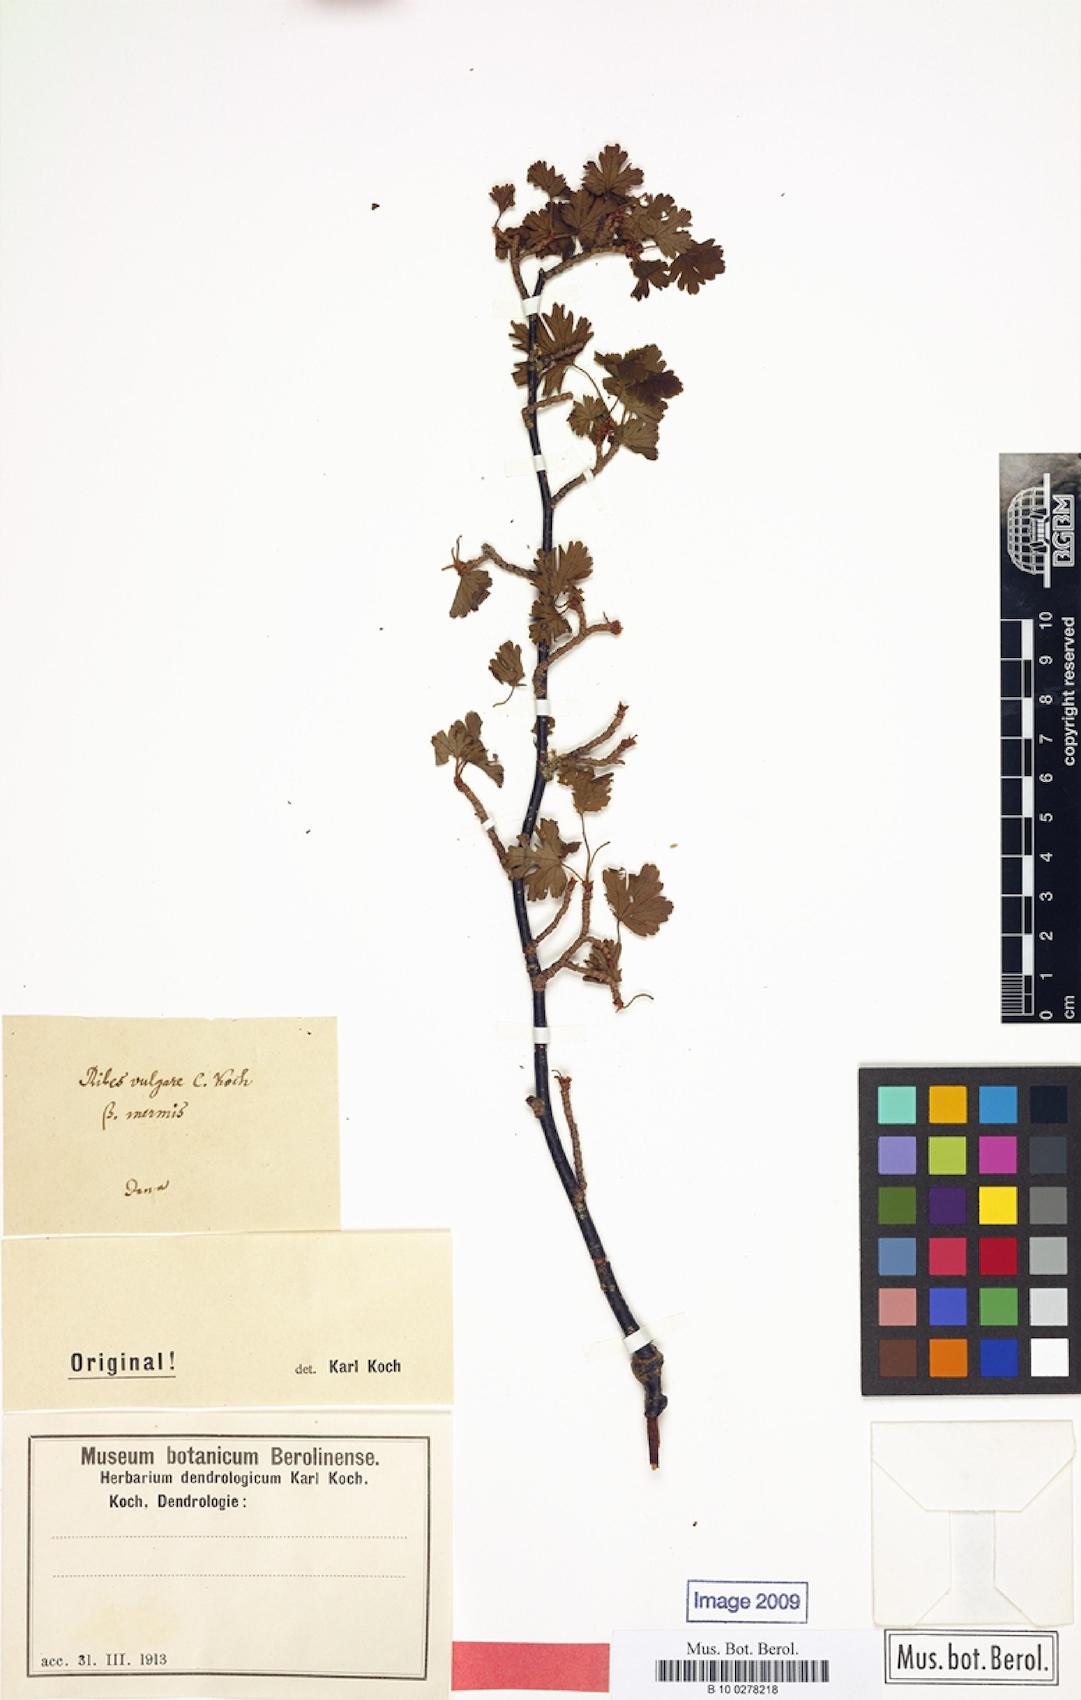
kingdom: Plantae
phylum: Tracheophyta
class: Magnoliopsida
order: Saxifragales
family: Grossulariaceae
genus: Ribes
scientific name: Ribes rubrum
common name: Red currant
